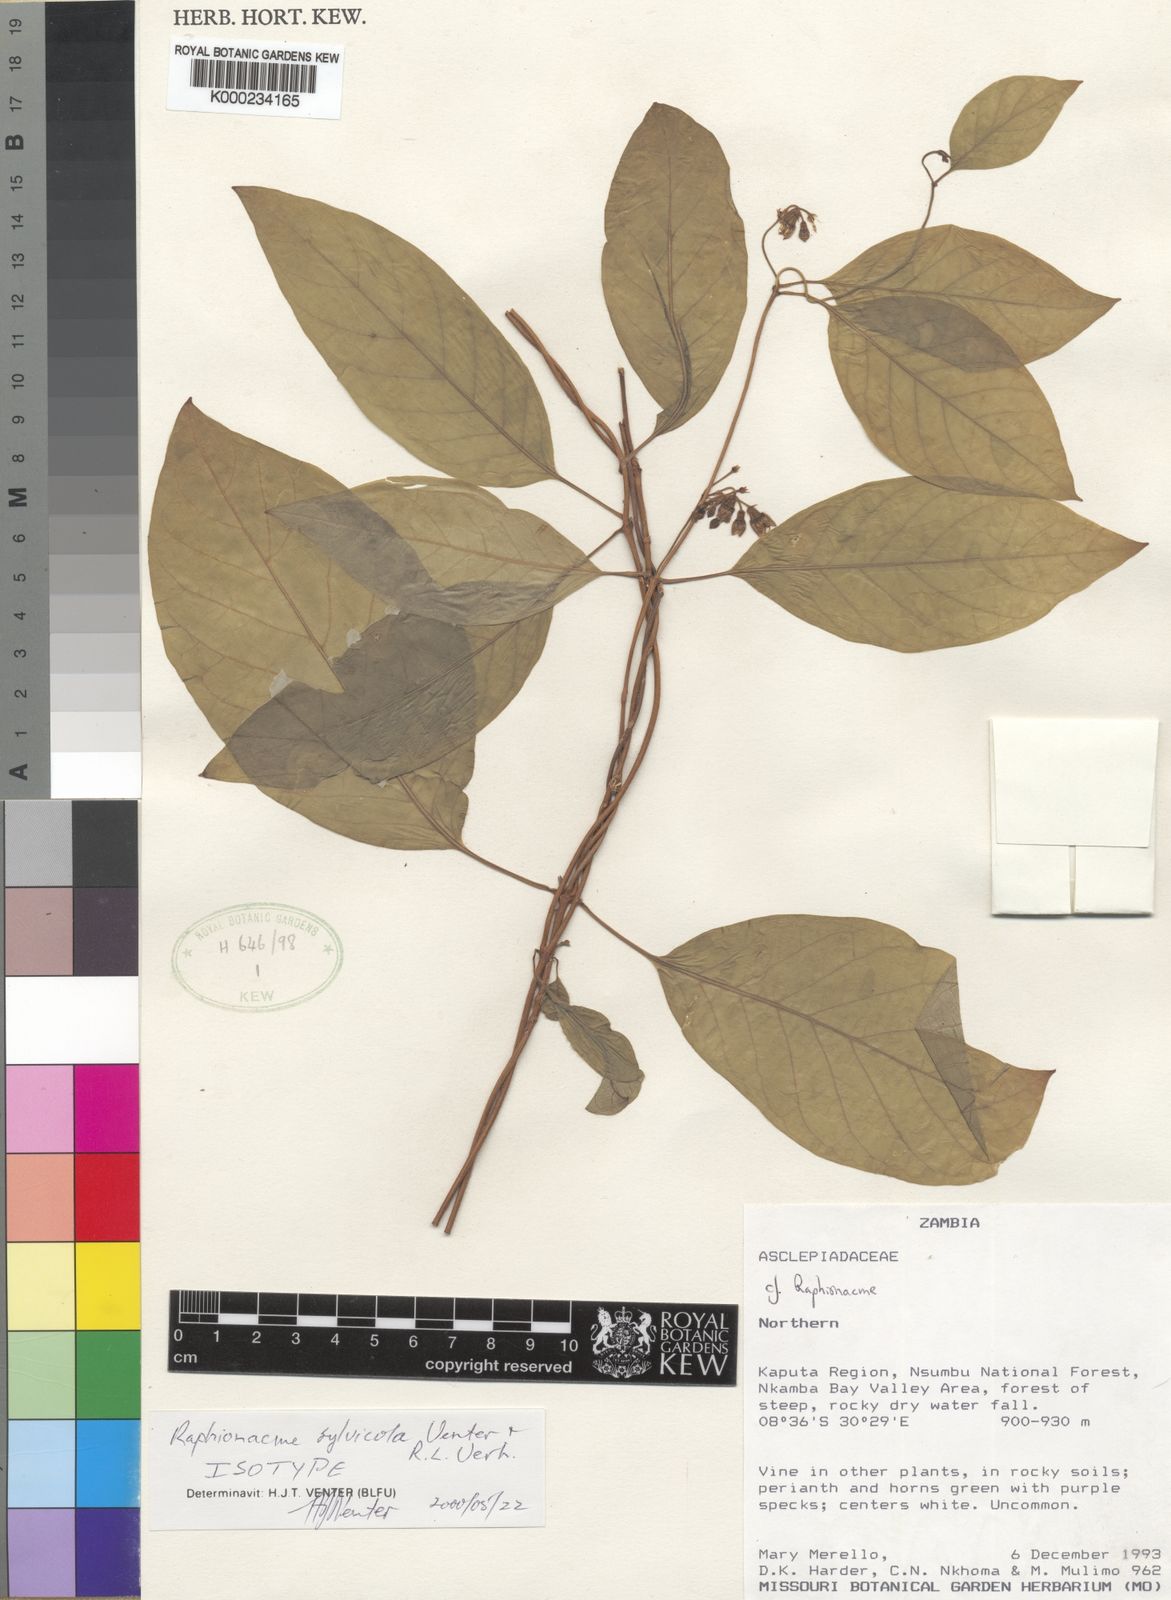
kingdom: Plantae
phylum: Tracheophyta
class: Magnoliopsida
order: Gentianales
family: Apocynaceae
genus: Raphionacme
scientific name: Raphionacme sylvicola
